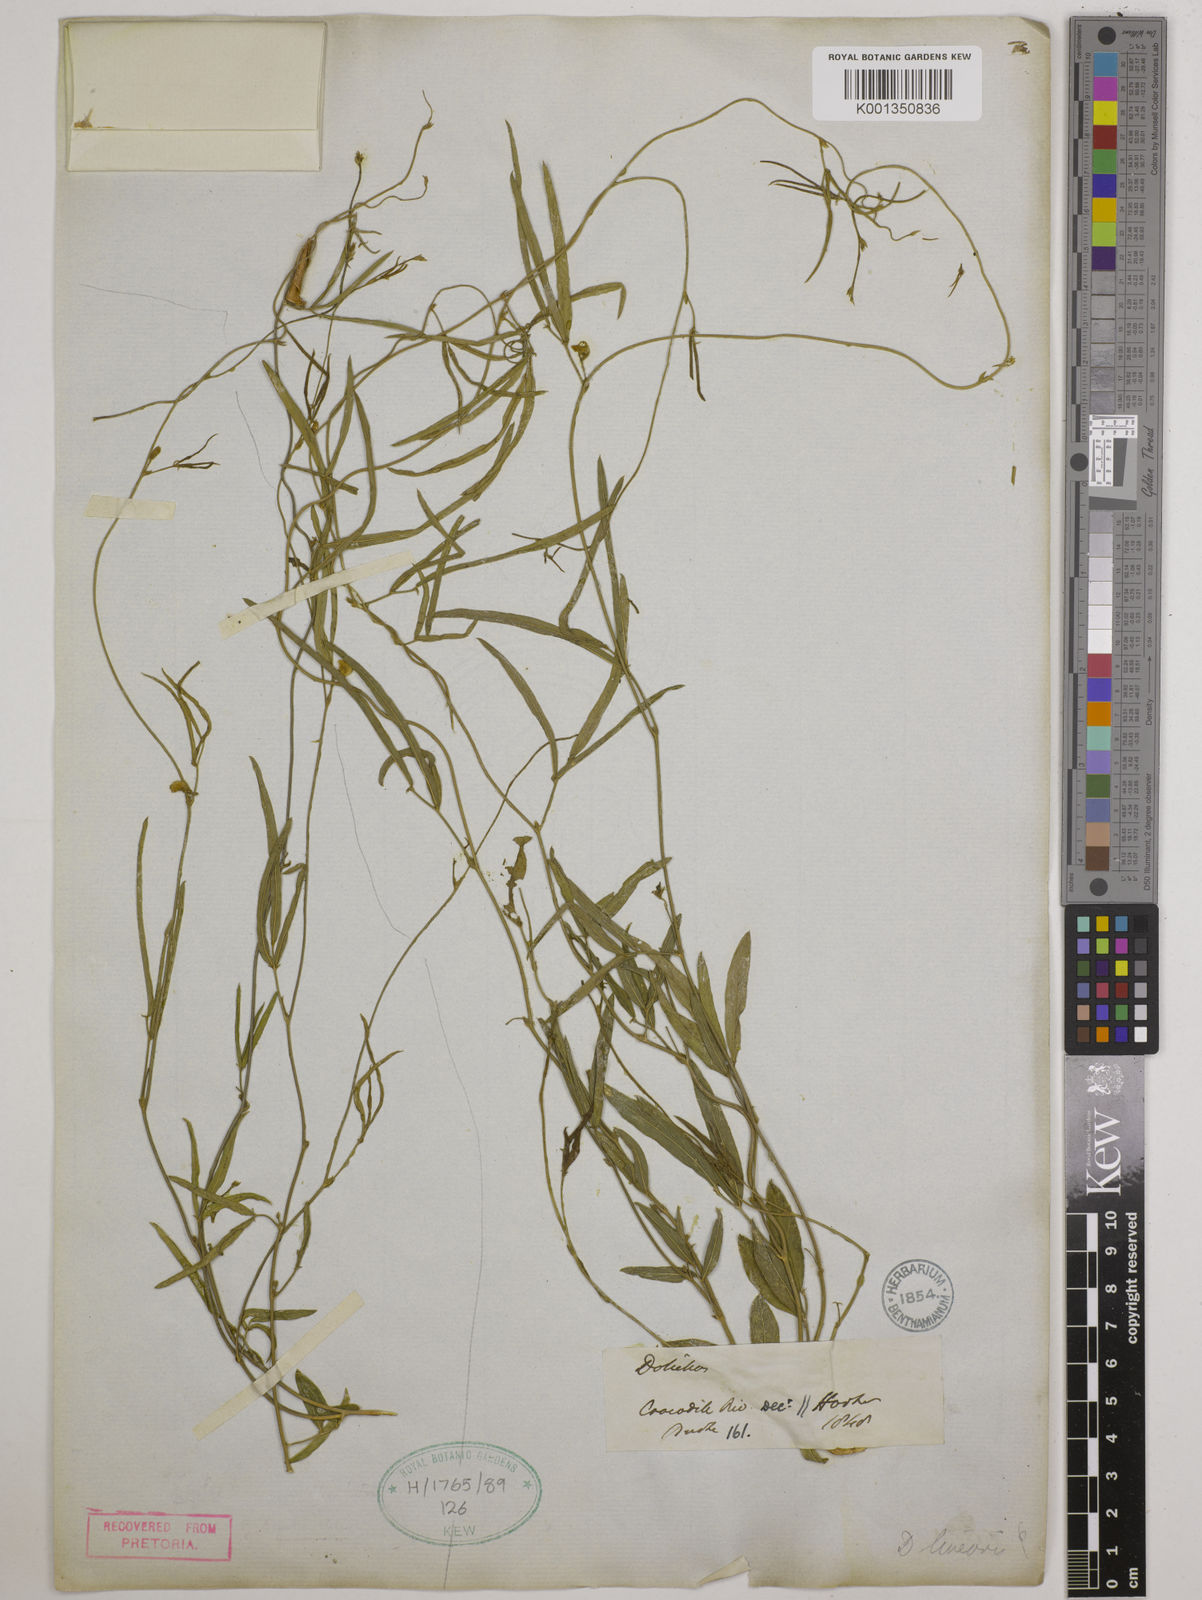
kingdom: Plantae
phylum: Tracheophyta
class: Magnoliopsida
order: Fabales
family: Fabaceae
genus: Dolichos
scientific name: Dolichos linearis
